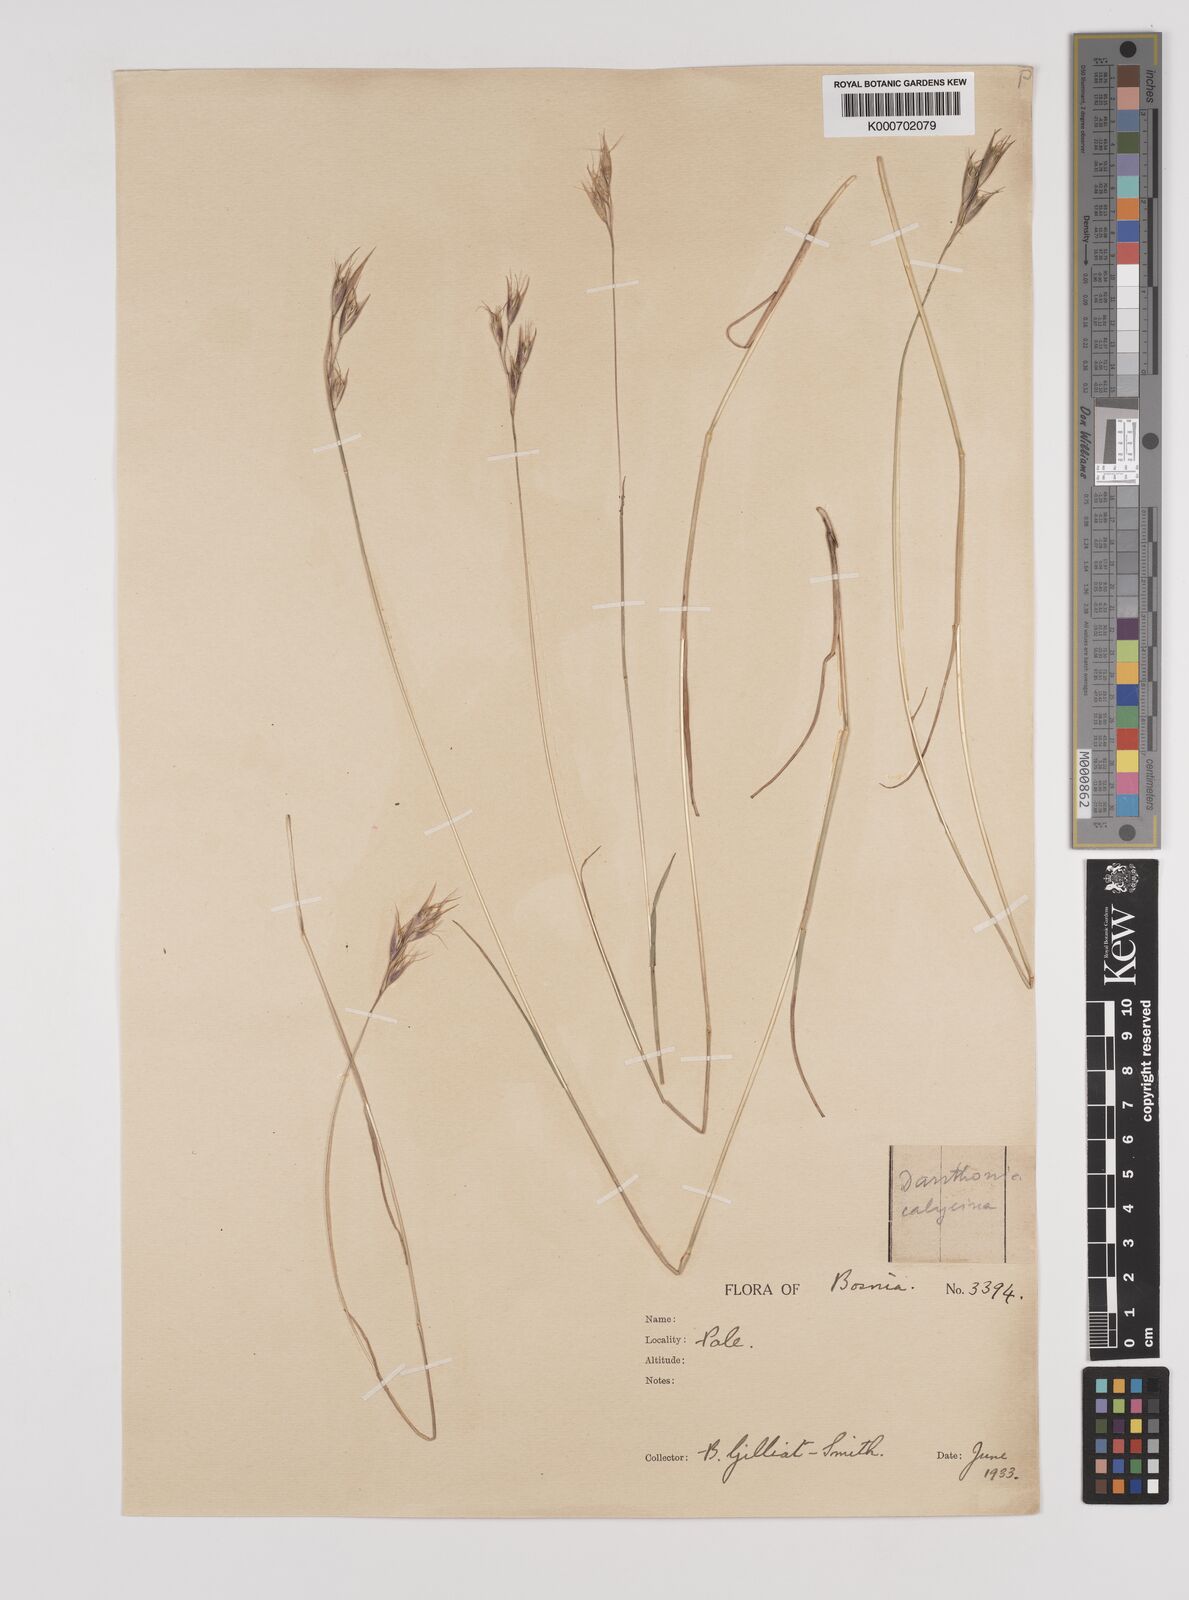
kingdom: Plantae
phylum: Tracheophyta
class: Liliopsida
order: Poales
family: Poaceae
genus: Danthonia
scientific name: Danthonia alpina
